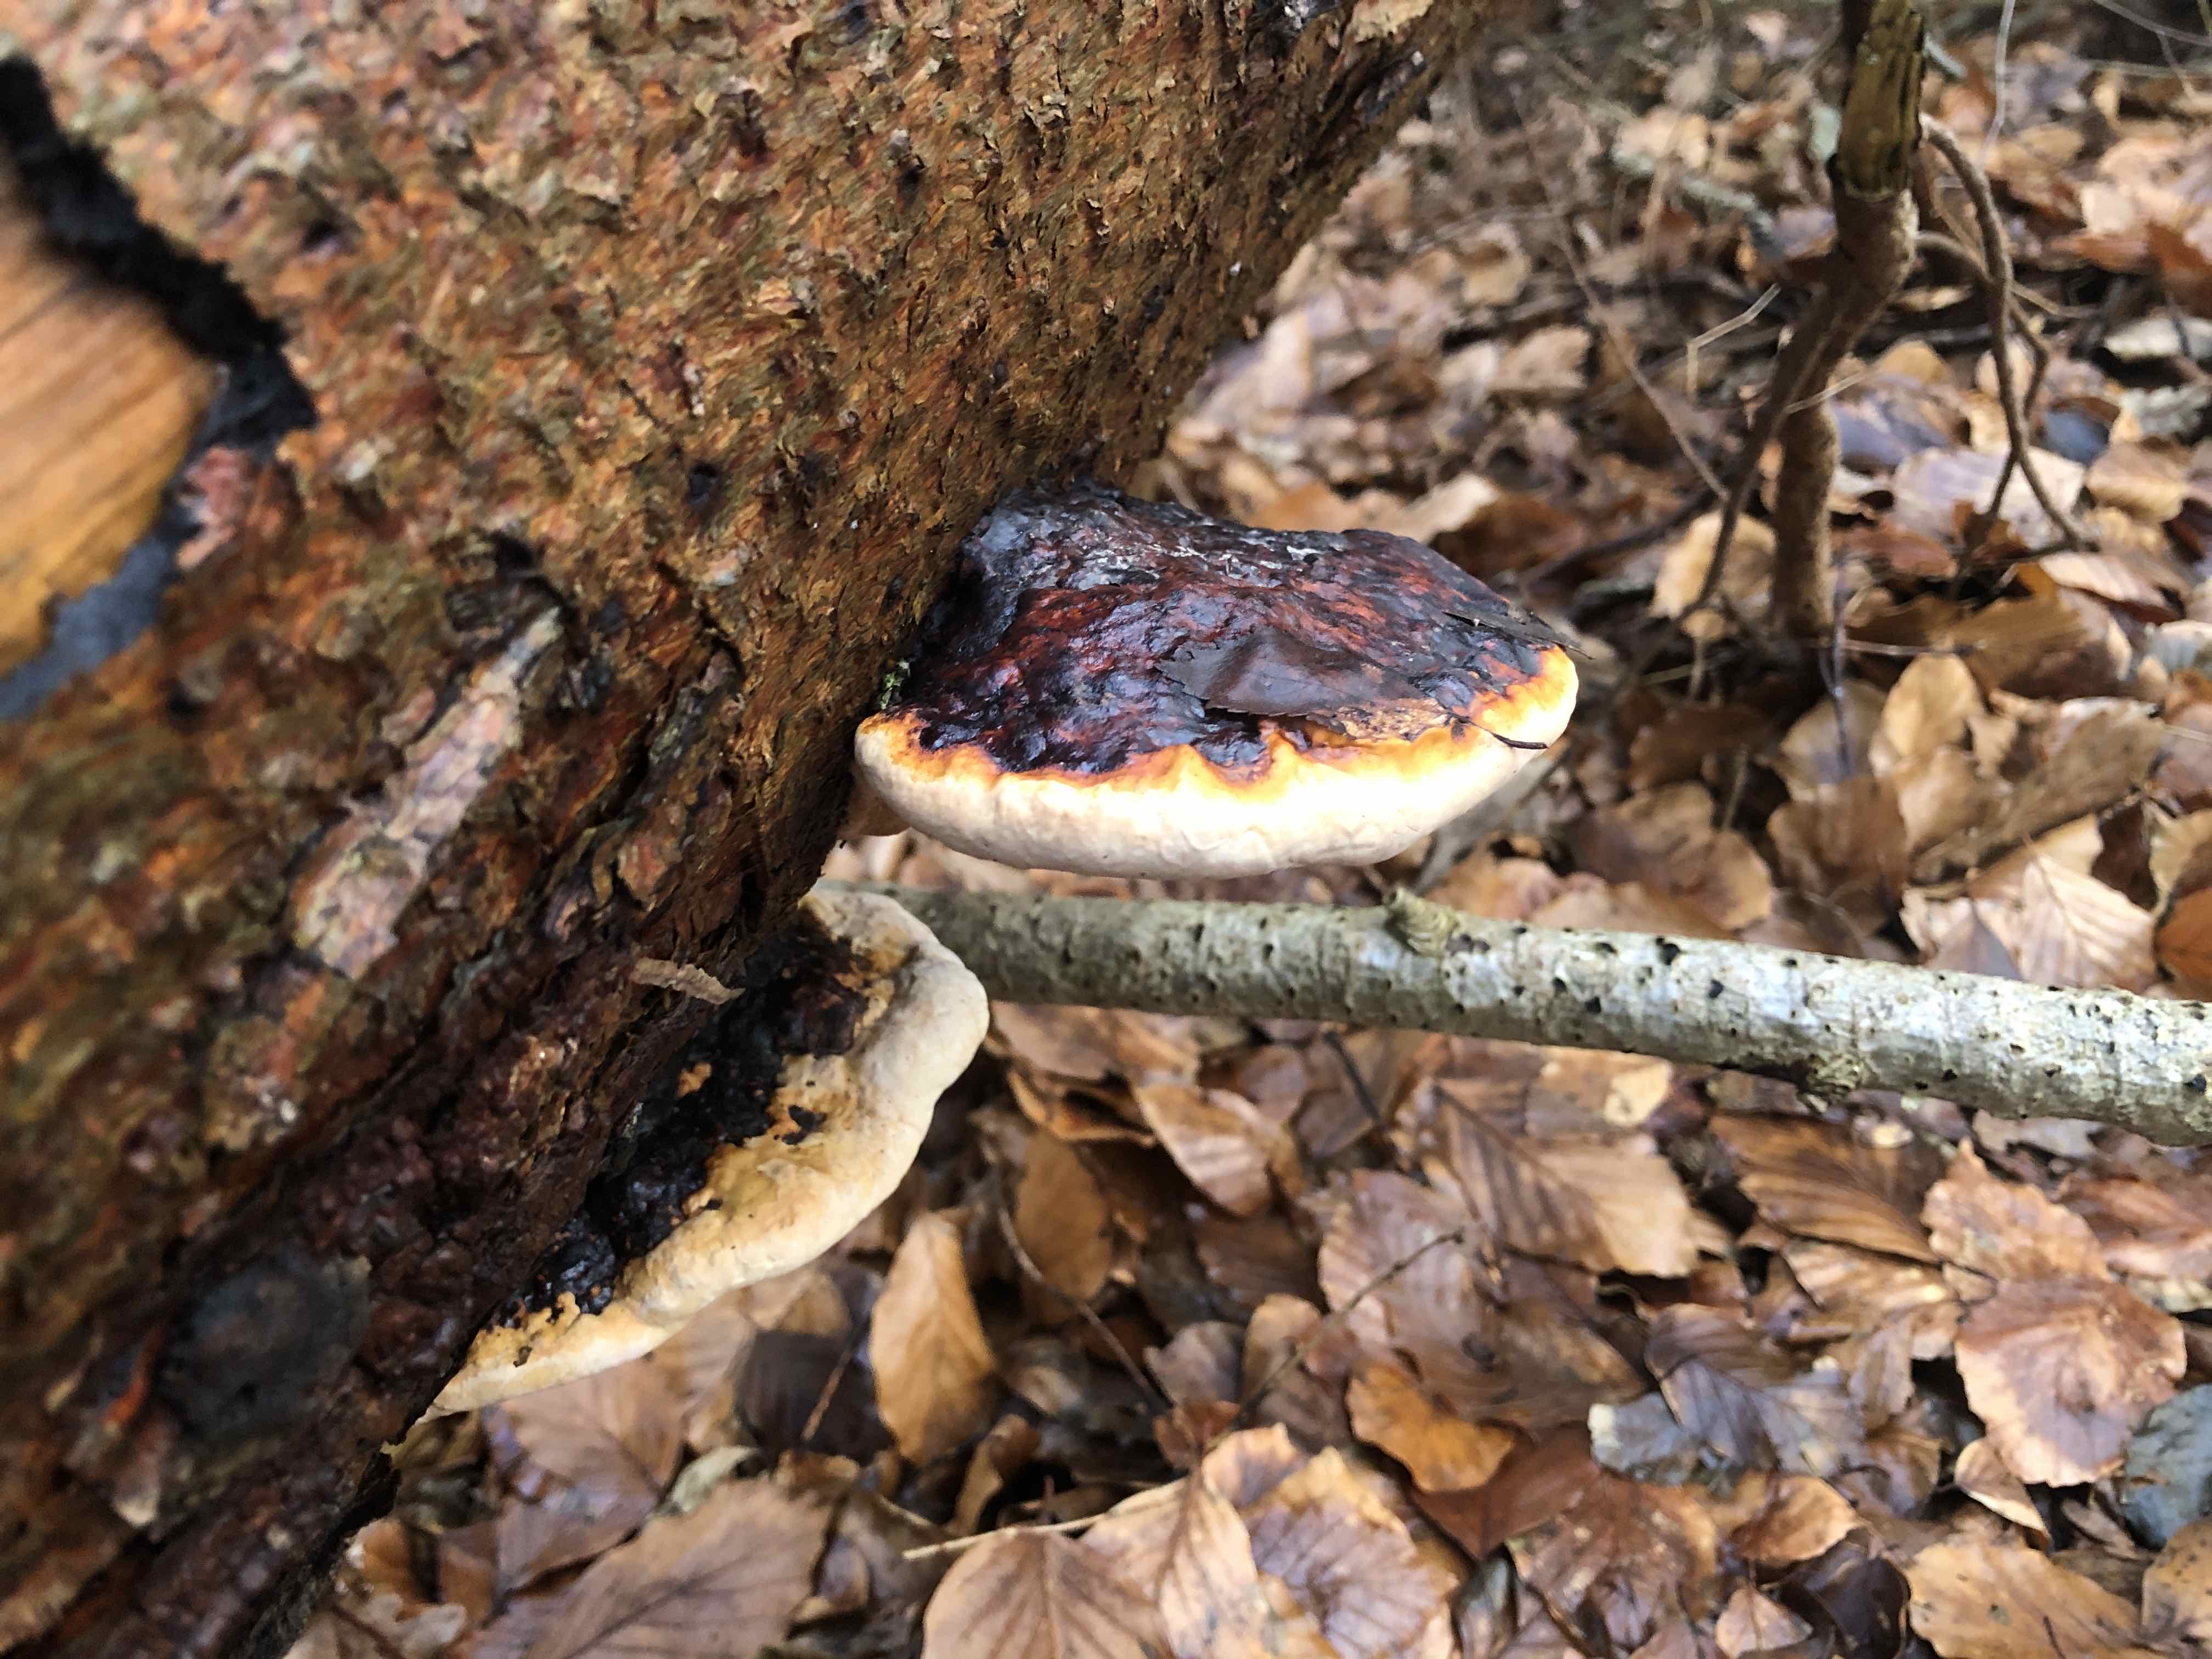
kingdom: Fungi
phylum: Basidiomycota
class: Agaricomycetes
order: Polyporales
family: Fomitopsidaceae
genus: Fomitopsis
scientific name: Fomitopsis pinicola
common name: randbæltet hovporesvamp
